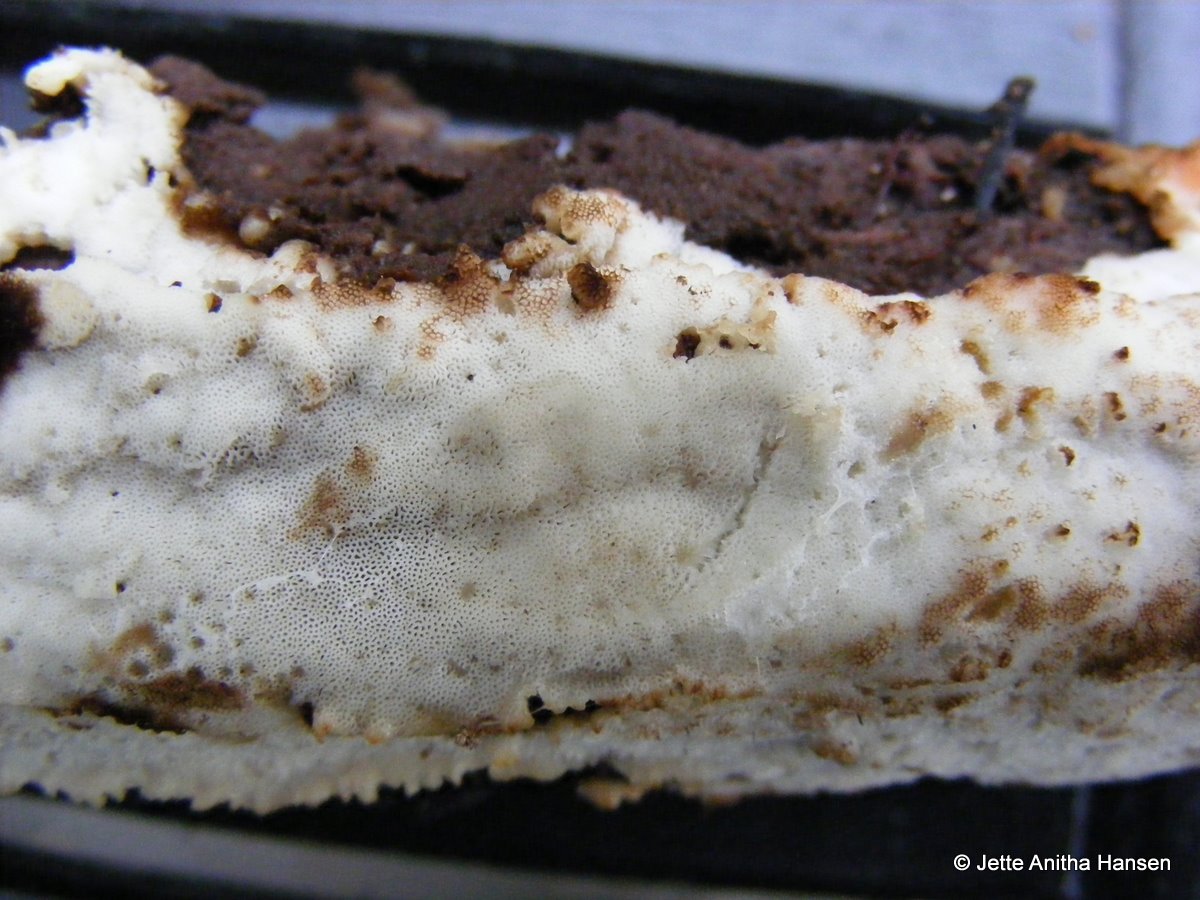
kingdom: Fungi
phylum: Basidiomycota
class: Agaricomycetes
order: Polyporales
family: Meripilaceae
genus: Rigidoporus
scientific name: Rigidoporus sanguinolentus
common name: blod-skorpeporesvamp
